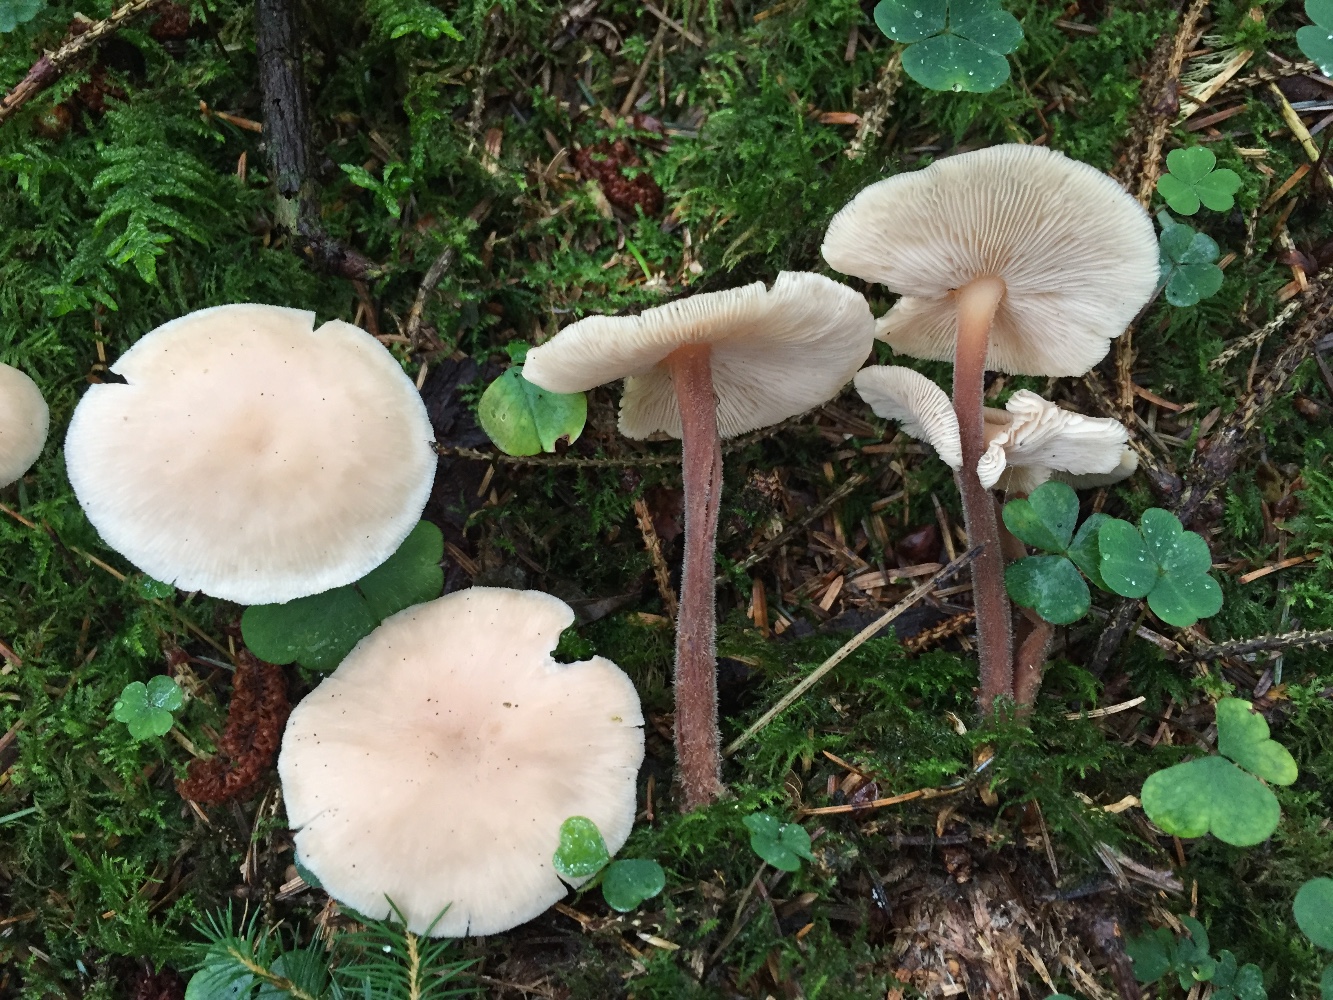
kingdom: Fungi
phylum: Basidiomycota
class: Agaricomycetes
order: Agaricales
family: Omphalotaceae
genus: Collybiopsis
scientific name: Collybiopsis confluens
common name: knippe-fladhat
